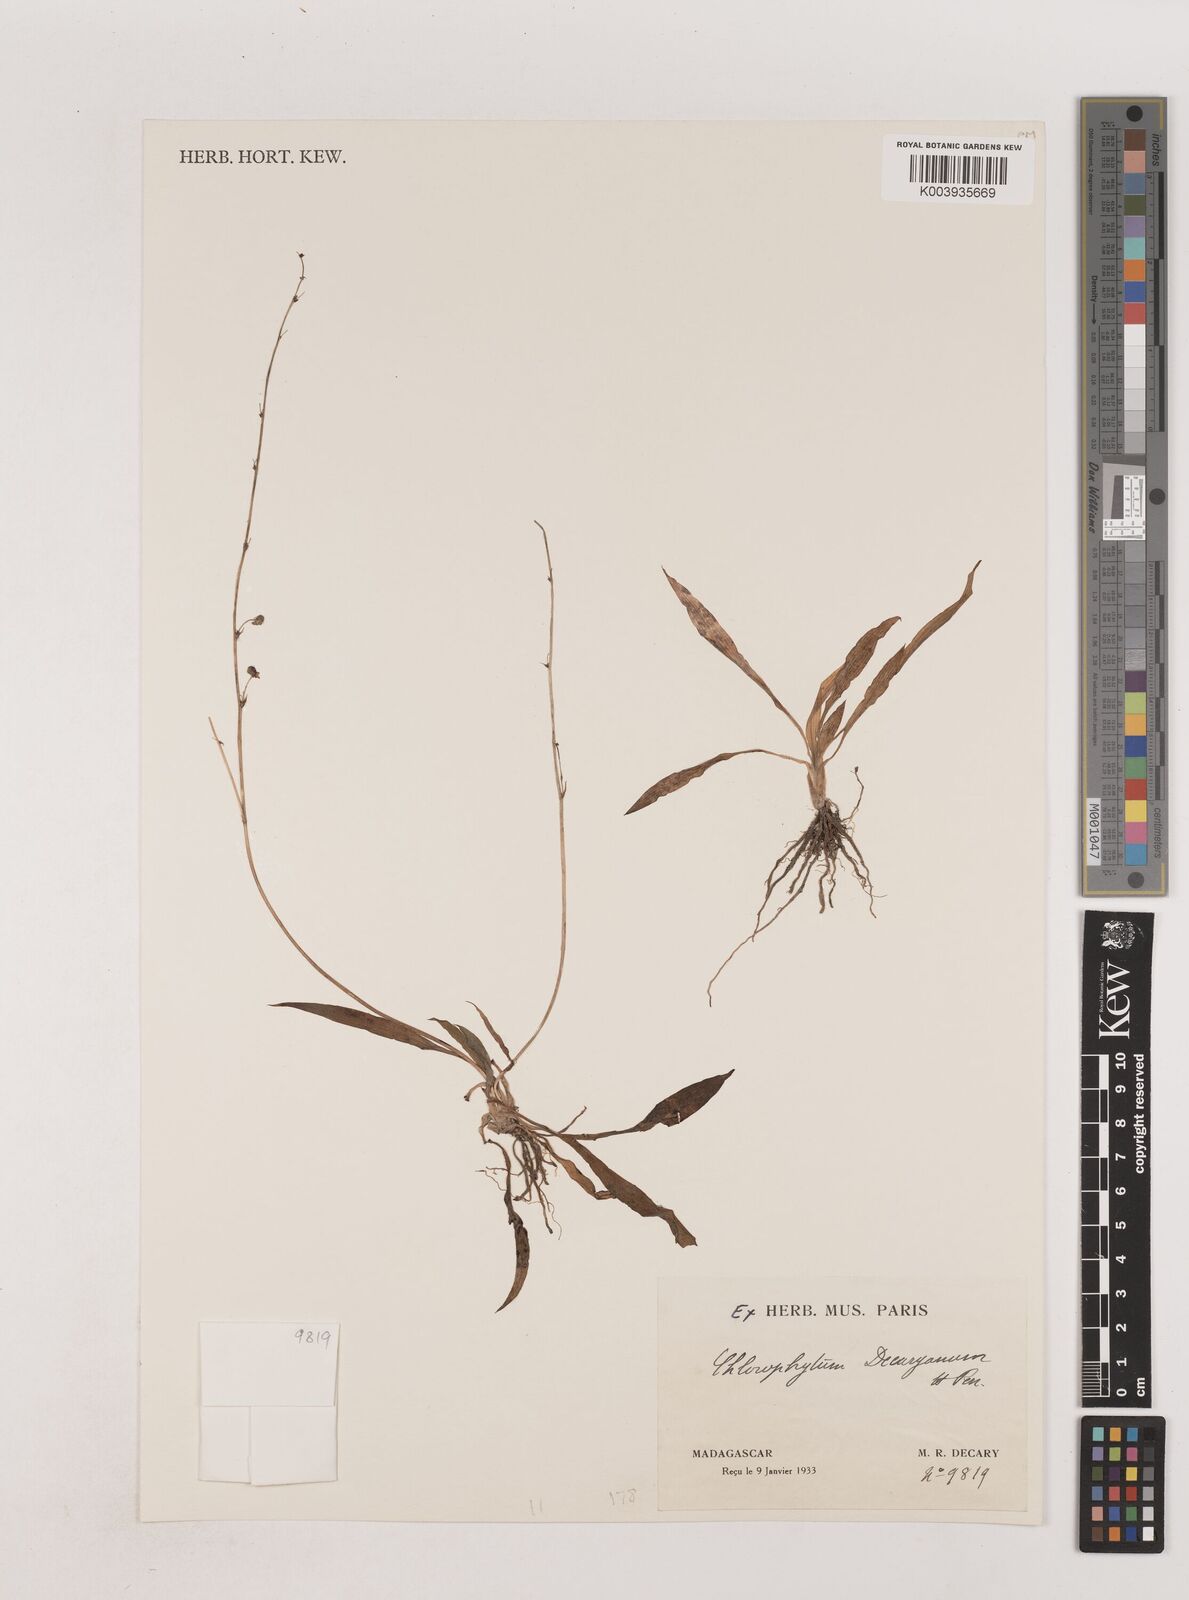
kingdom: Plantae
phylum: Tracheophyta
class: Liliopsida
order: Asparagales
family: Asparagaceae
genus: Chlorophytum
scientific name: Chlorophytum decaryanum
